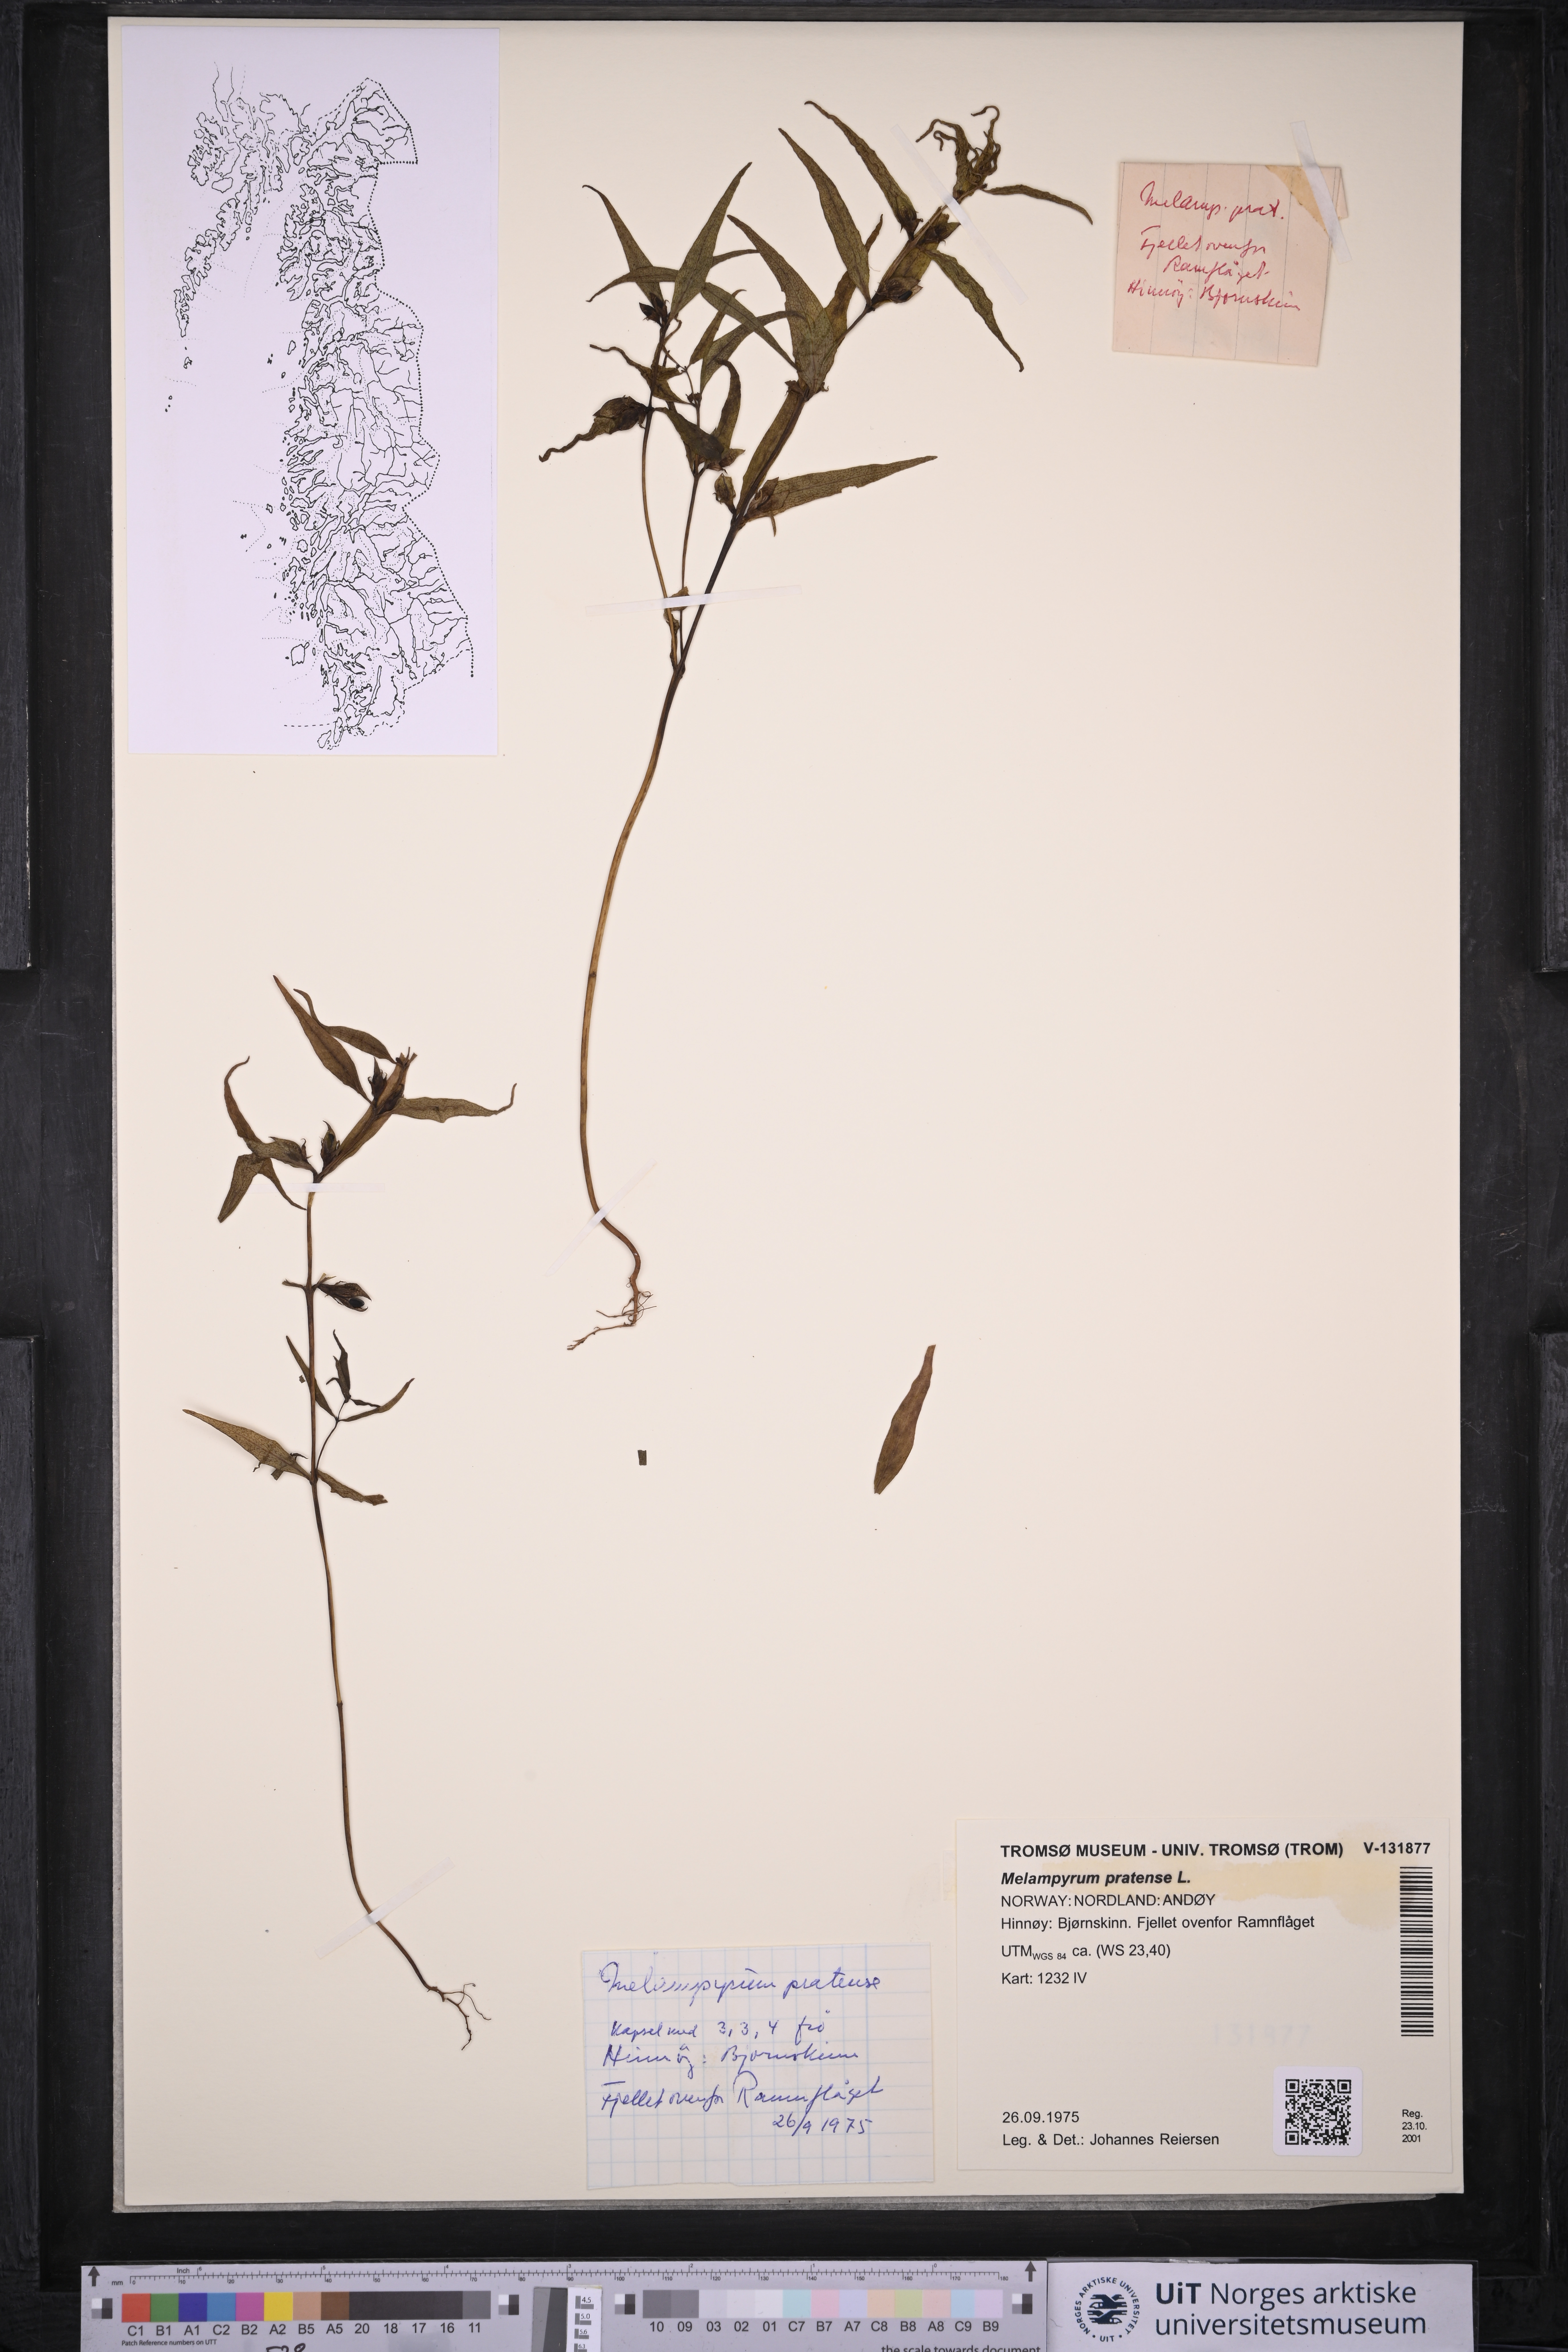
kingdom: Plantae
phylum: Tracheophyta
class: Magnoliopsida
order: Lamiales
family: Orobanchaceae
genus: Melampyrum
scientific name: Melampyrum pratense
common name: Common cow-wheat
